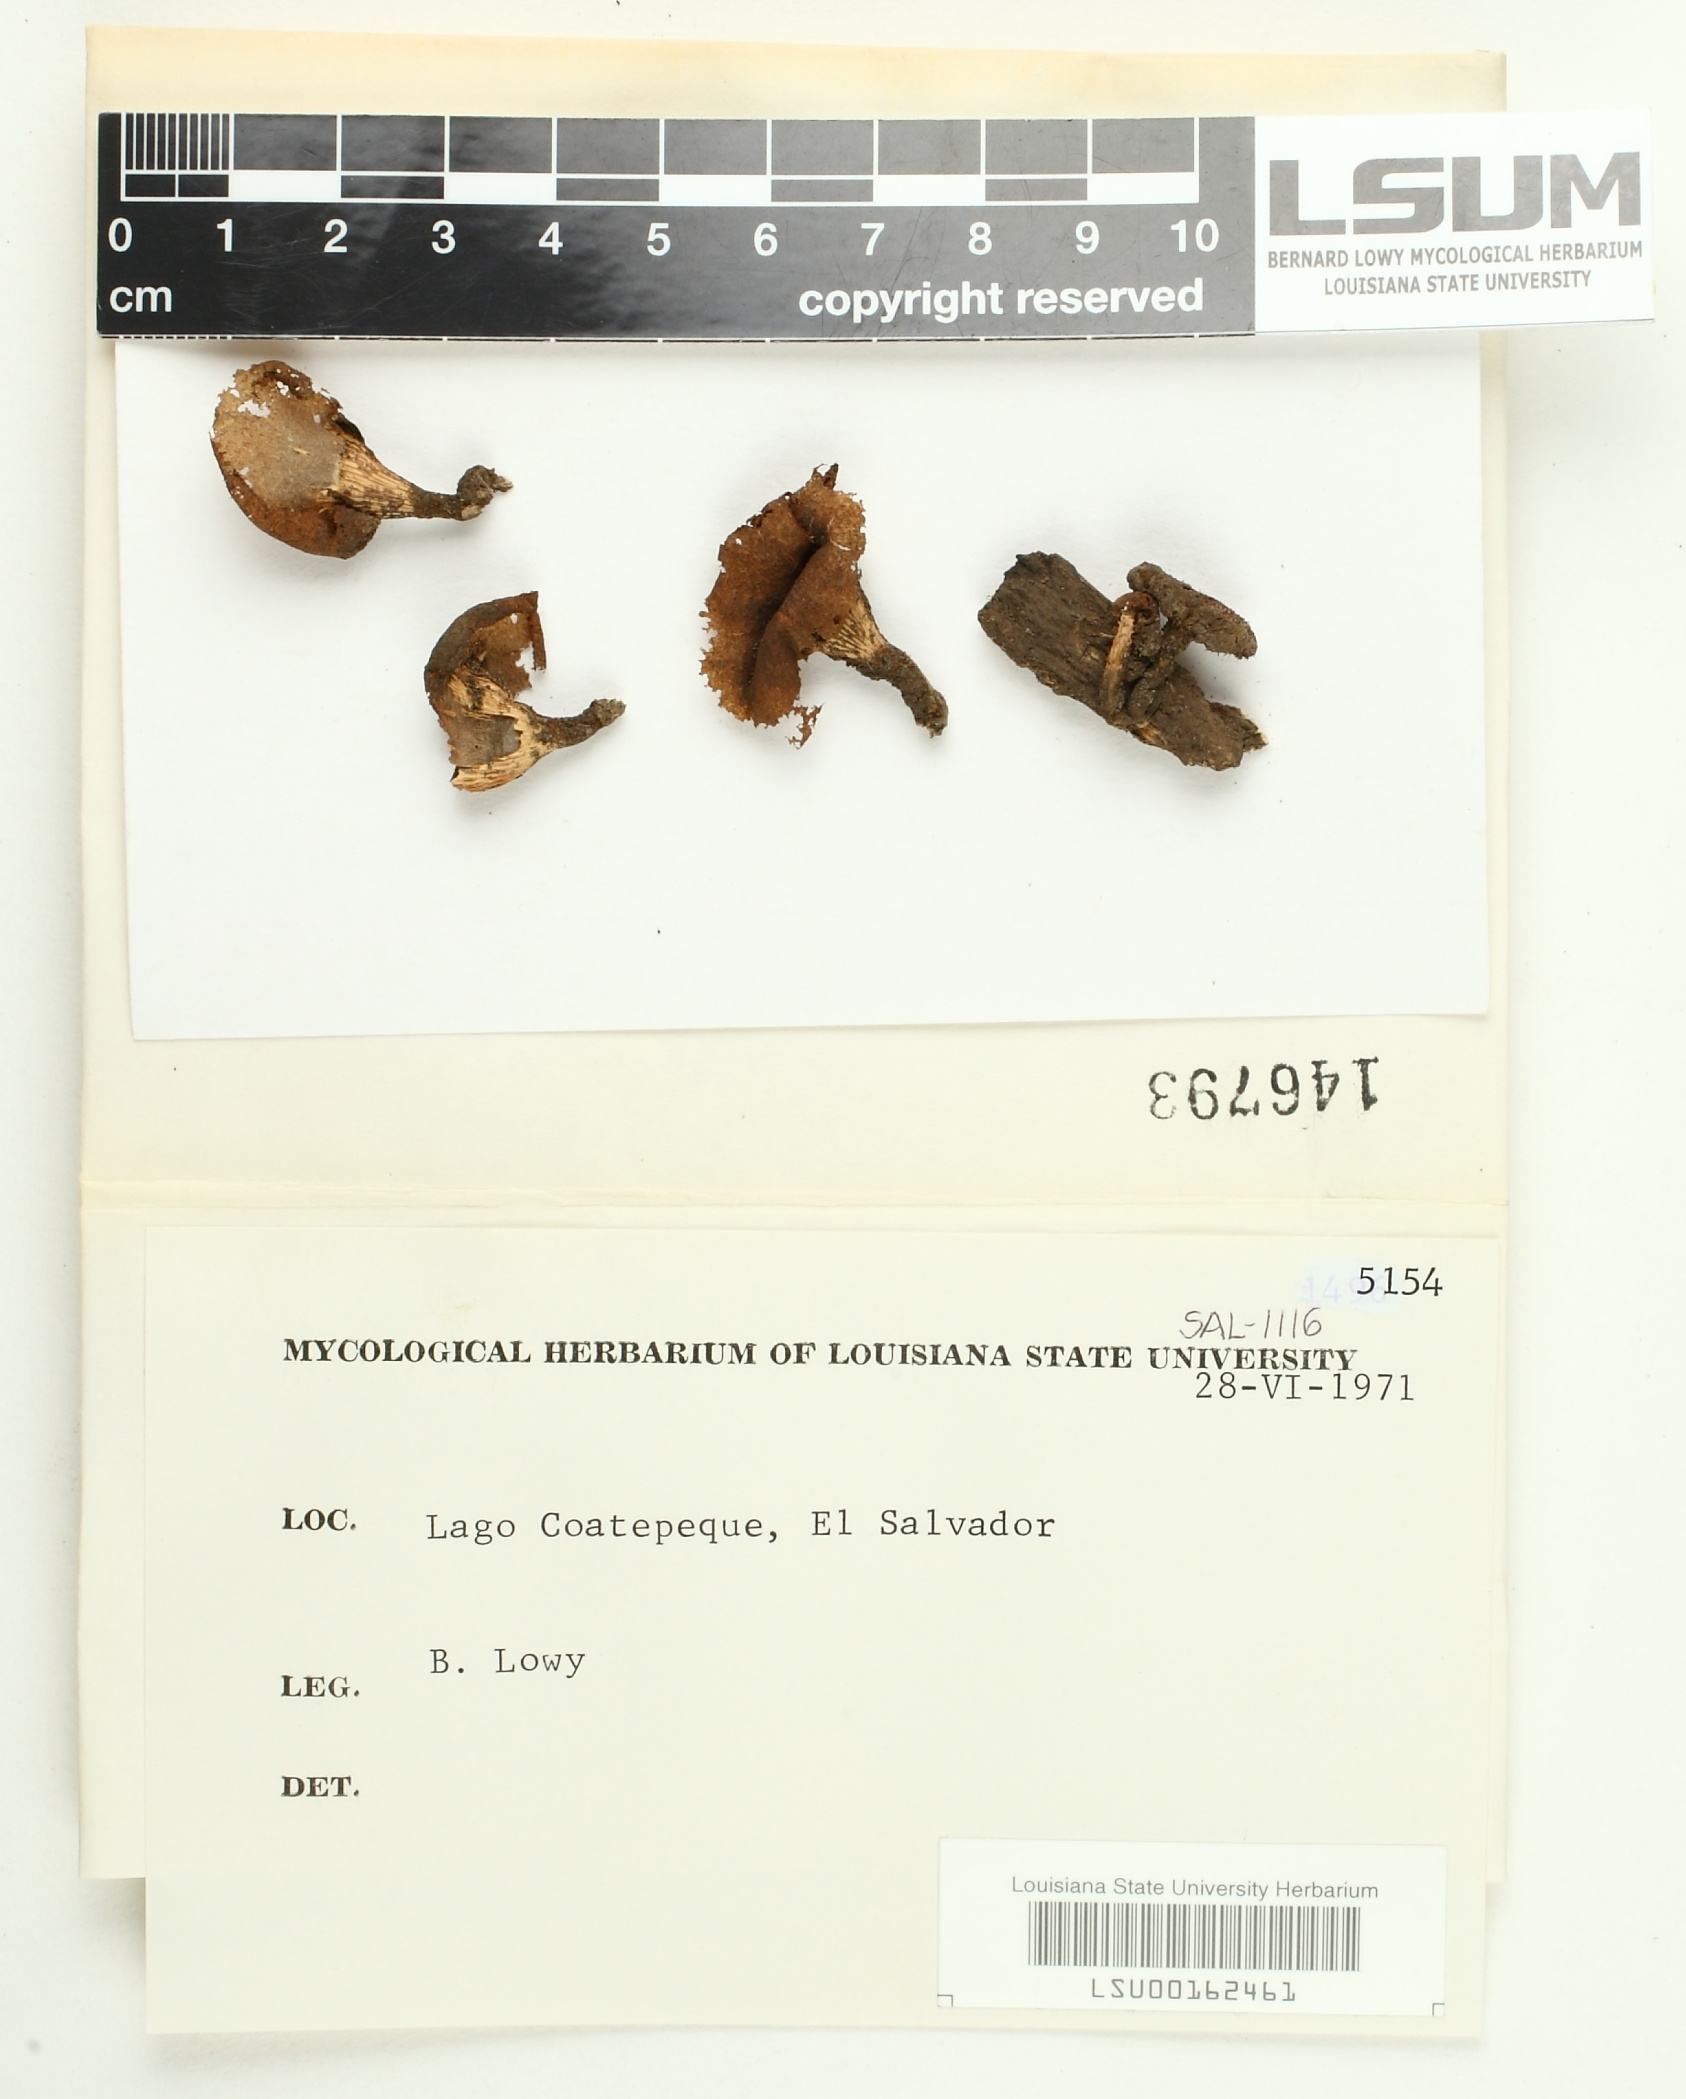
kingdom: Fungi
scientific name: Fungi
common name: Fungi
